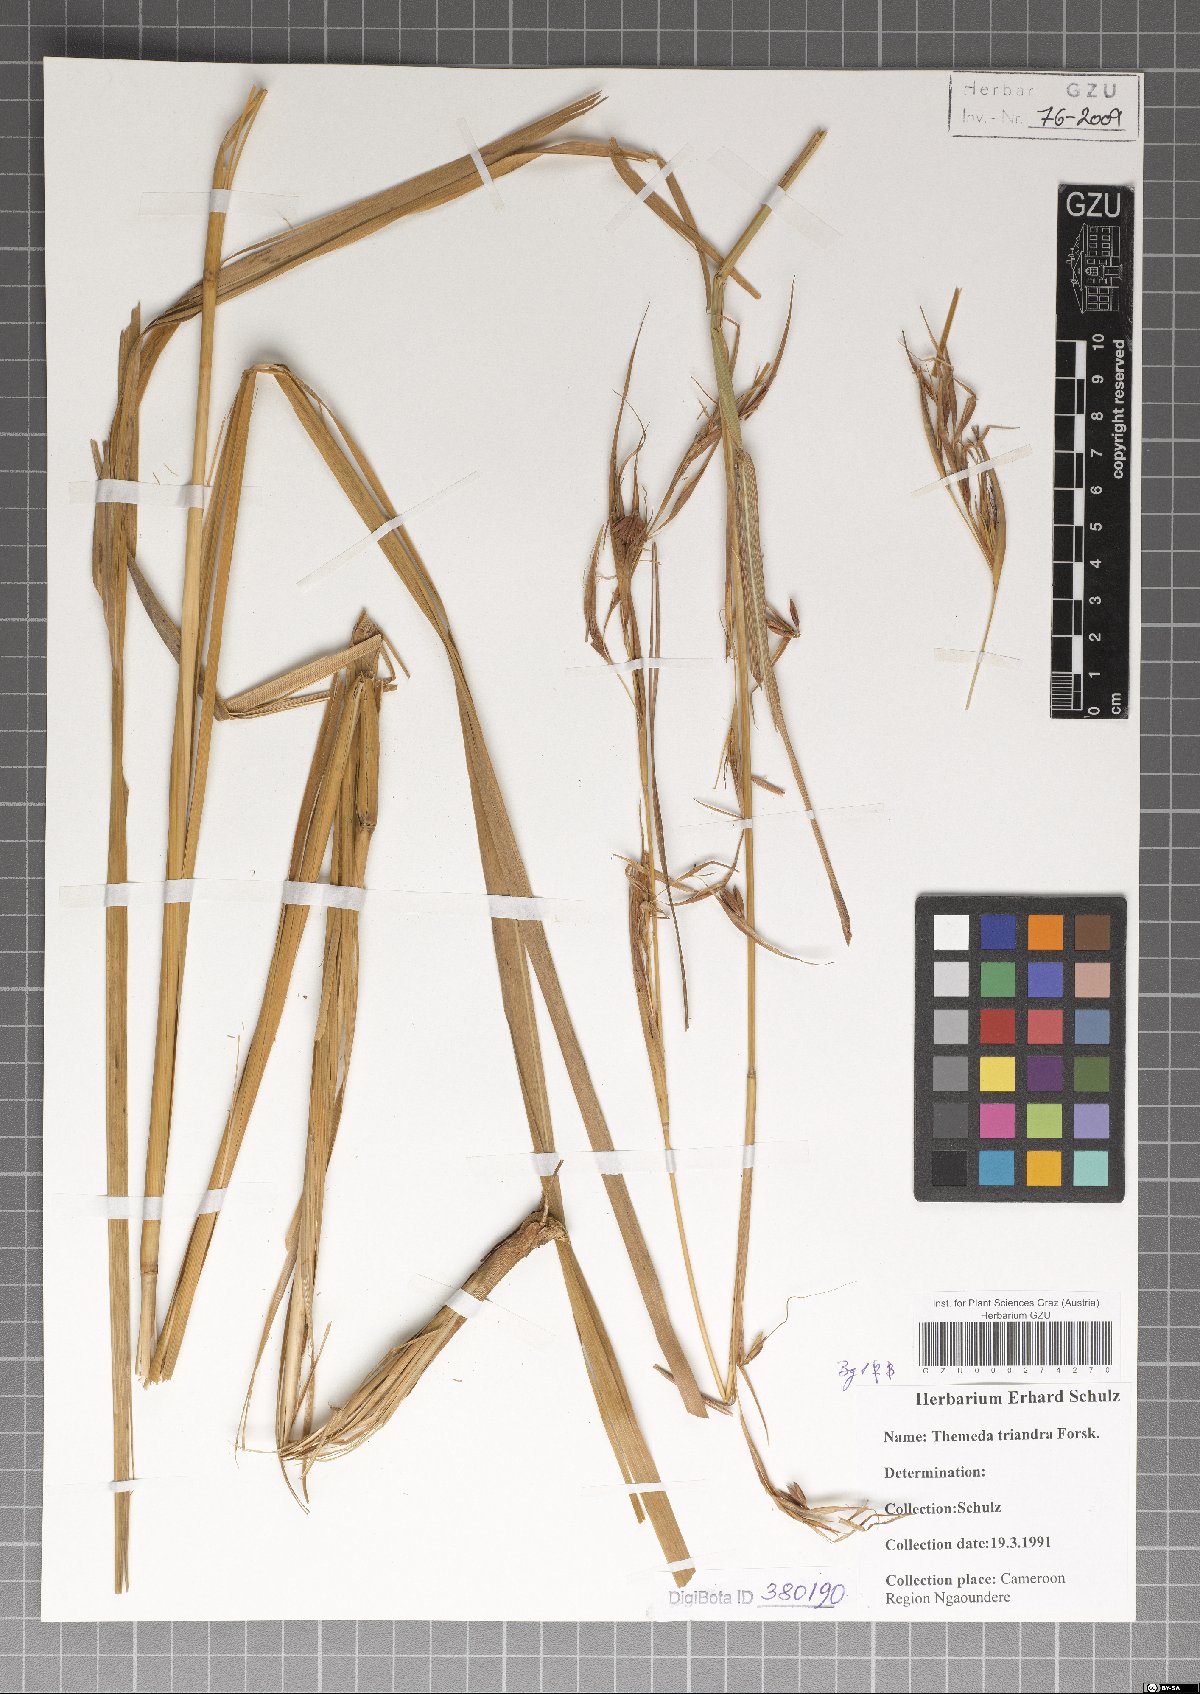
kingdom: Plantae
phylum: Tracheophyta
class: Liliopsida
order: Poales
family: Poaceae
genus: Themeda
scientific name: Themeda triandra
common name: Kangaroo grass
